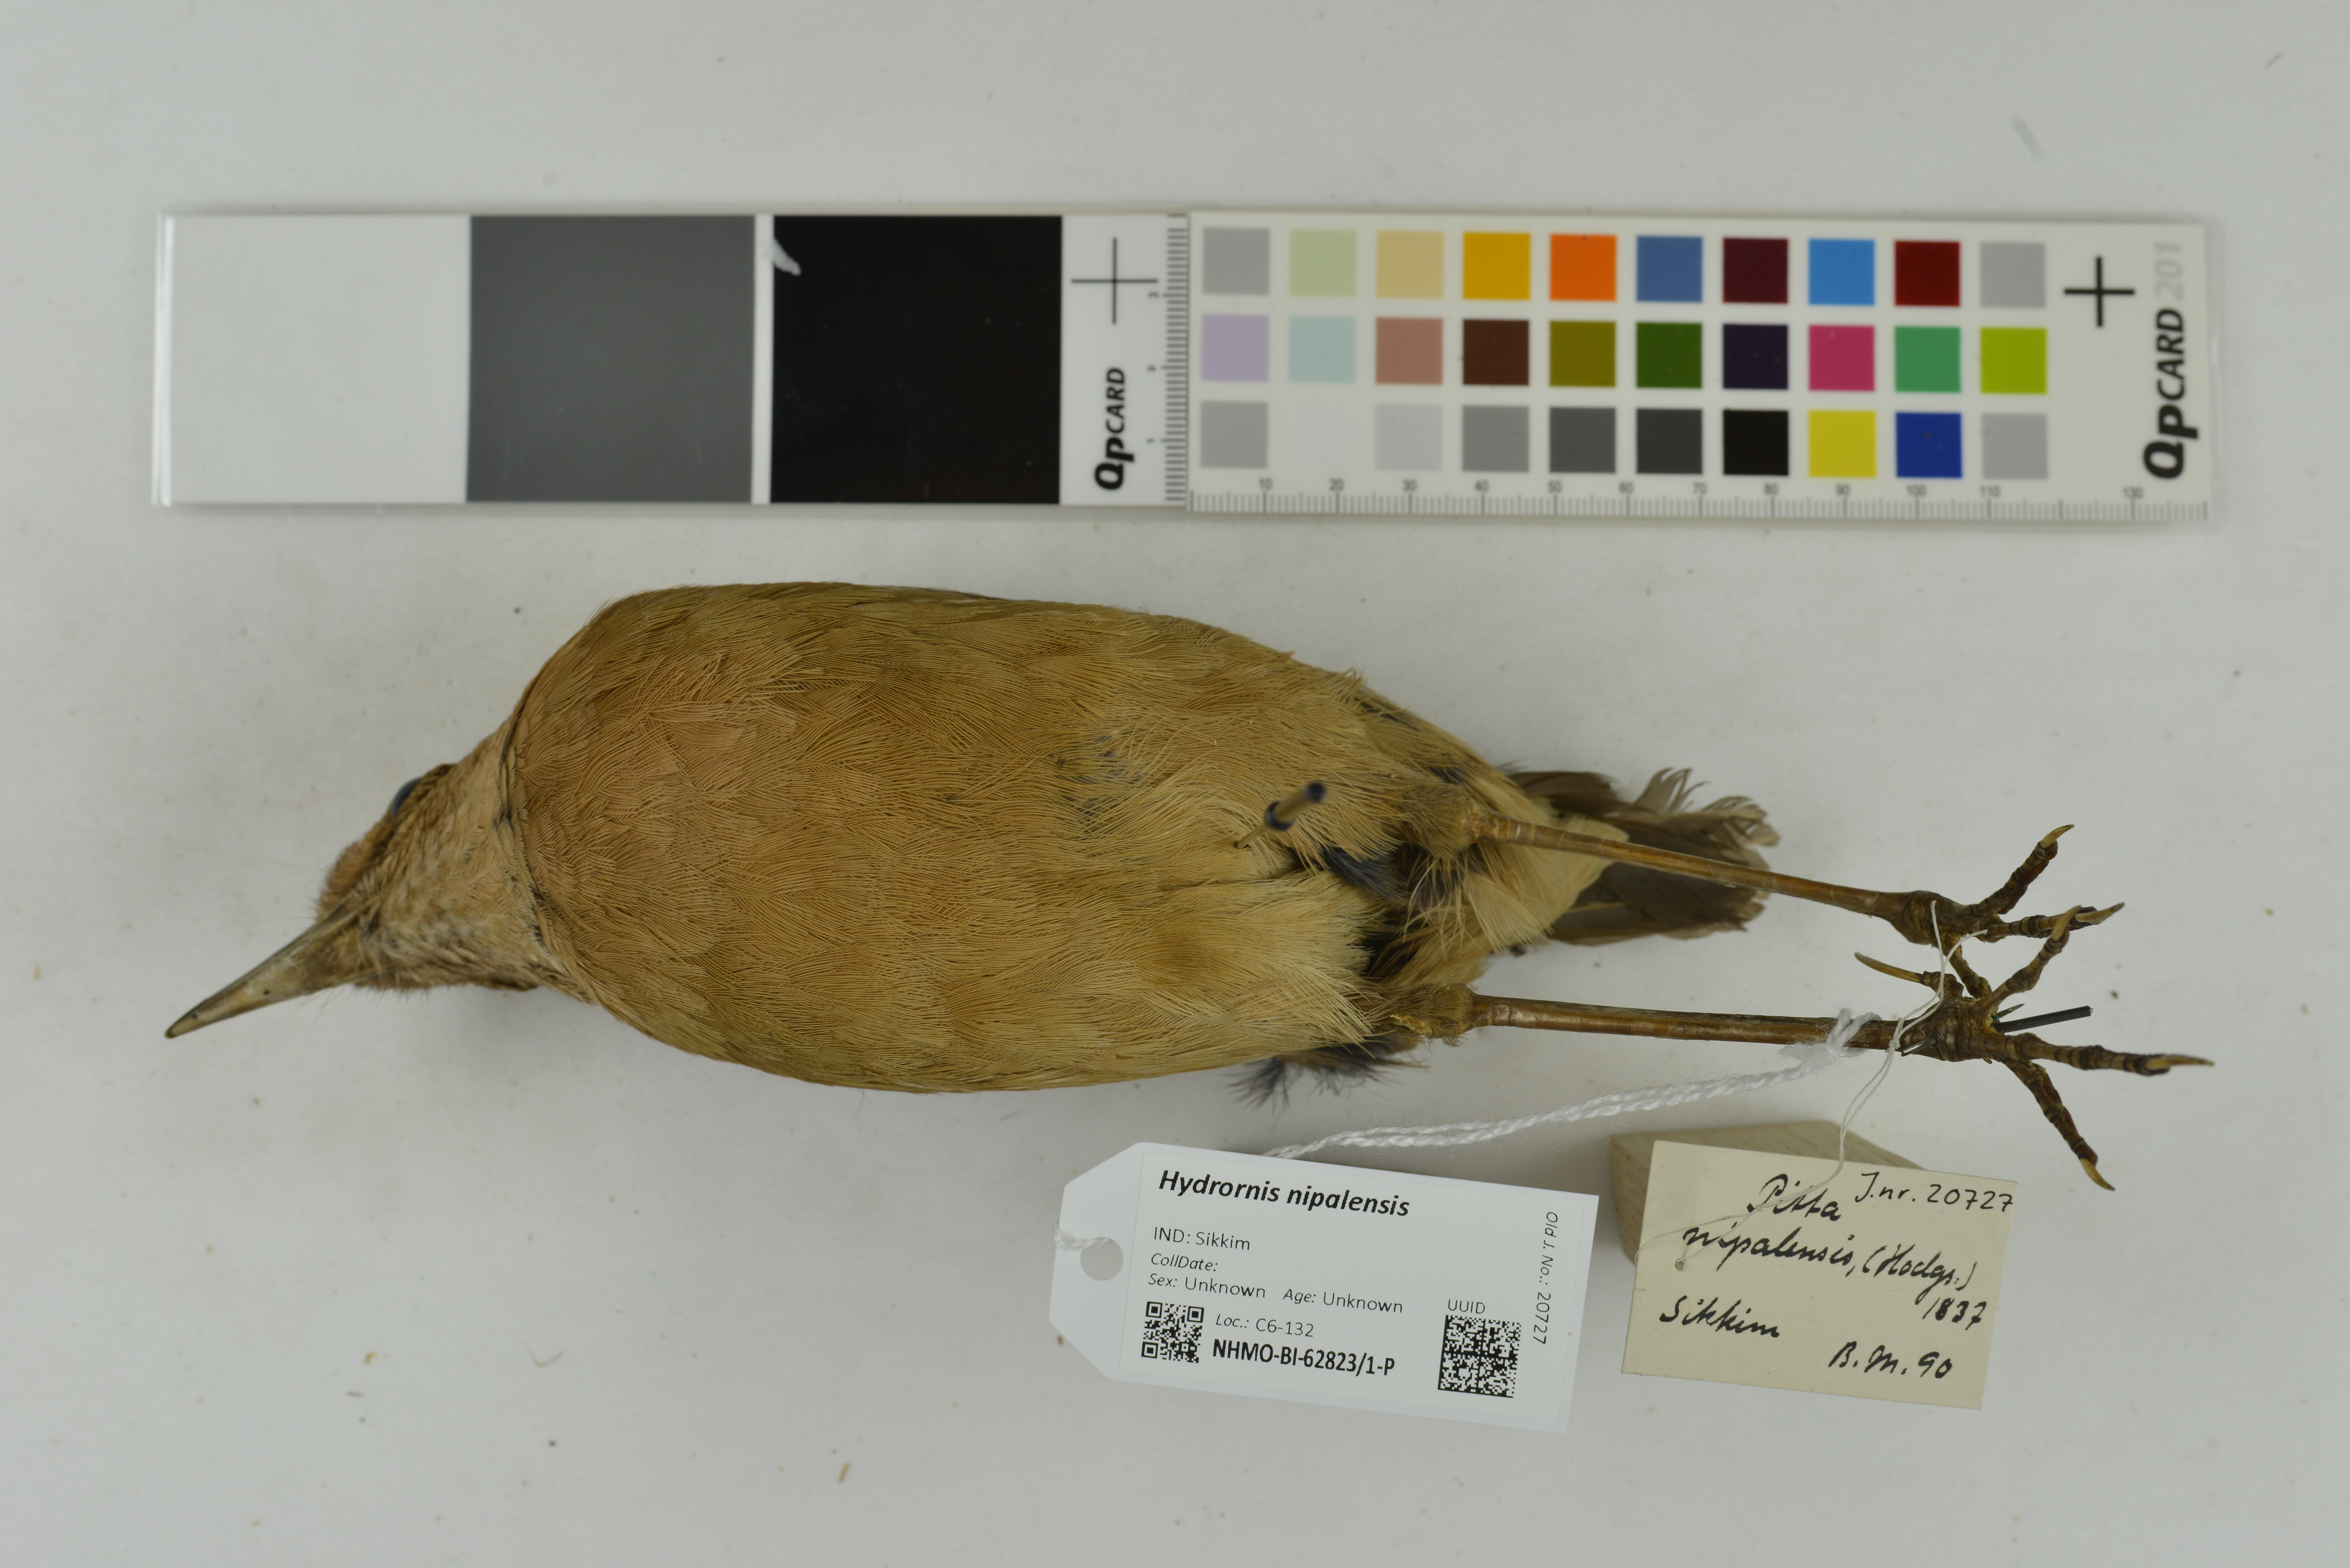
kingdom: Animalia
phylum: Chordata
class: Aves
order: Passeriformes
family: Pittidae
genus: Pitta
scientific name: Pitta nipalensis
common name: Blue-naped pitta
